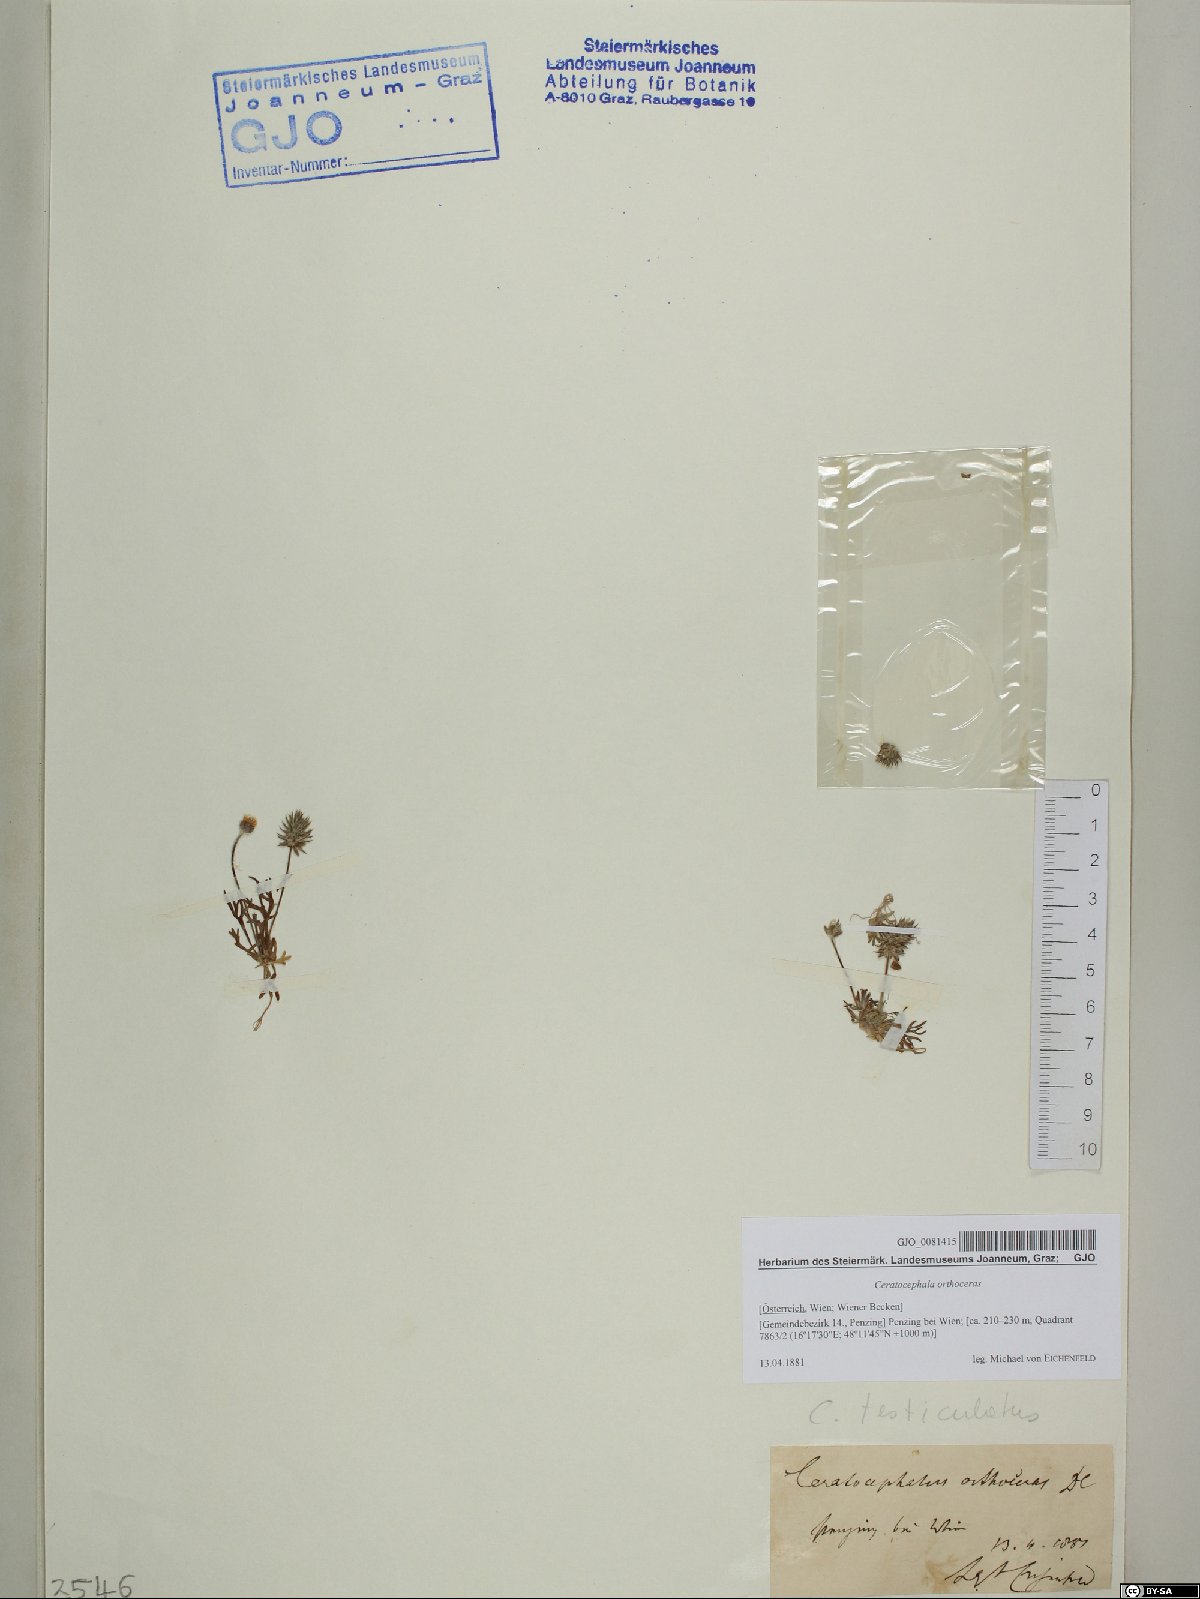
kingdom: Plantae
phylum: Tracheophyta
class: Magnoliopsida
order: Ranunculales
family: Ranunculaceae
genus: Ceratocephala
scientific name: Ceratocephala orthoceras
